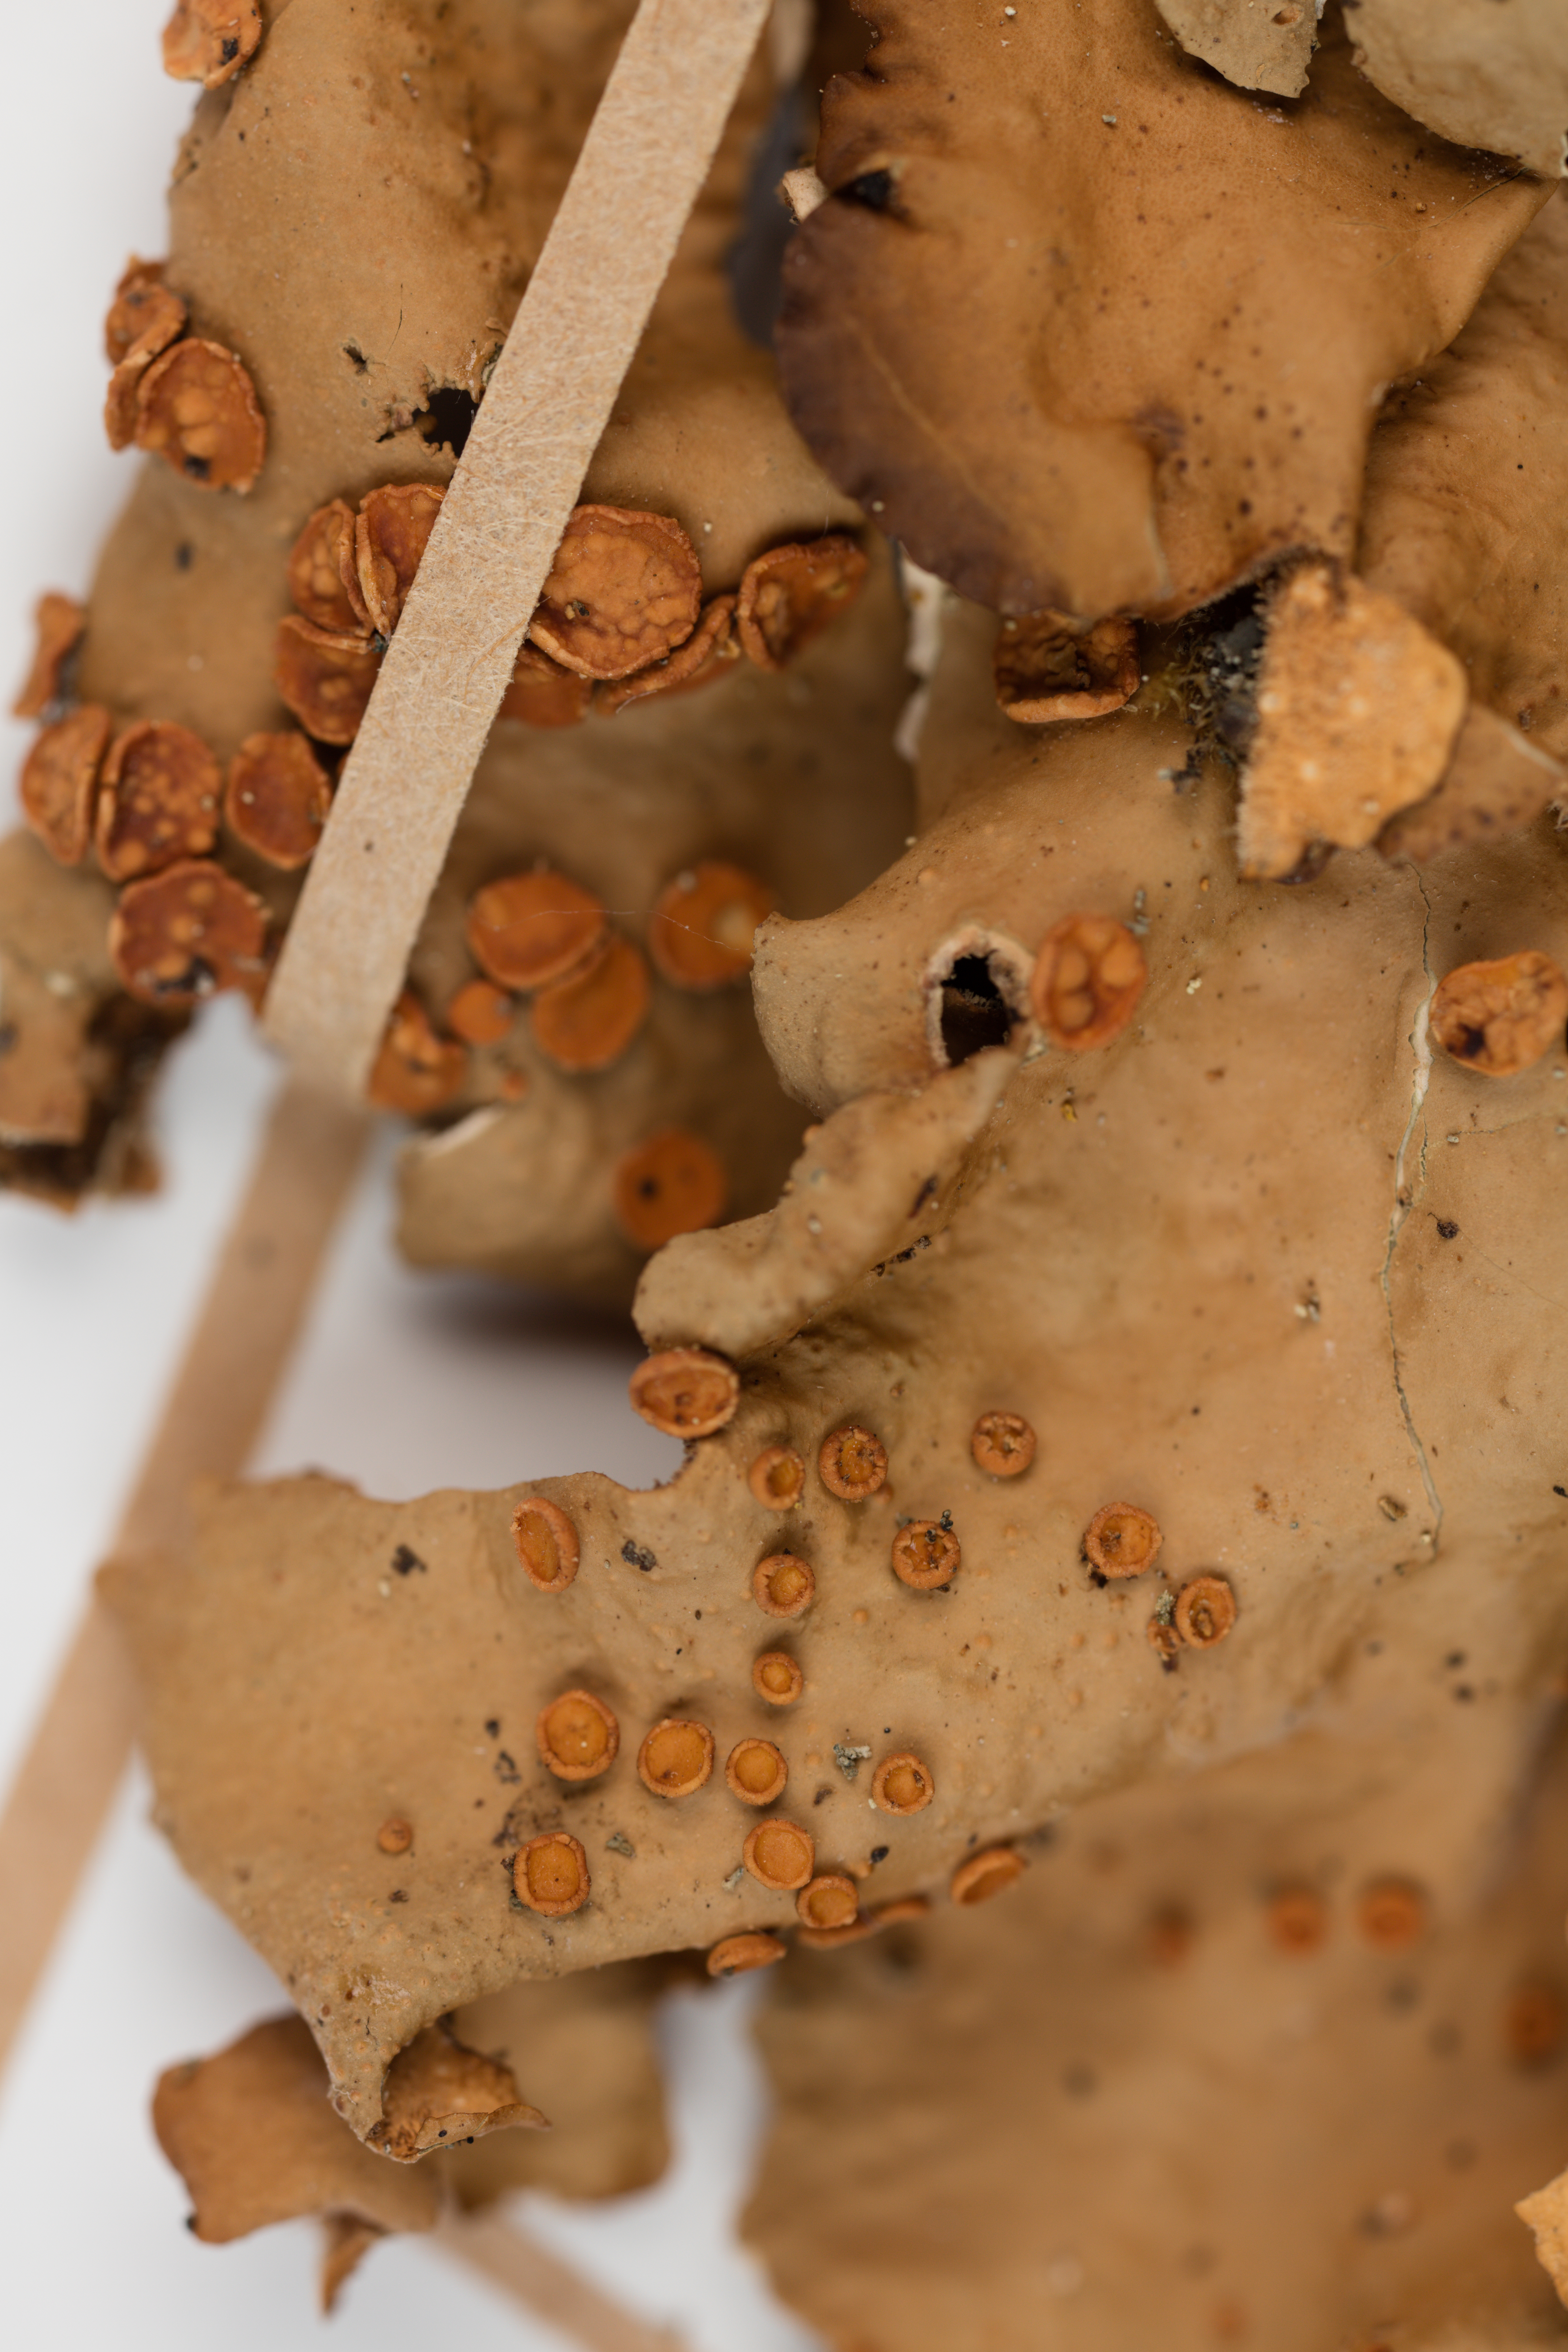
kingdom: Fungi
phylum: Ascomycota
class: Lecanoromycetes
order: Peltigerales
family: Lobariaceae
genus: Sticta
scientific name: Sticta cinereoglauca
